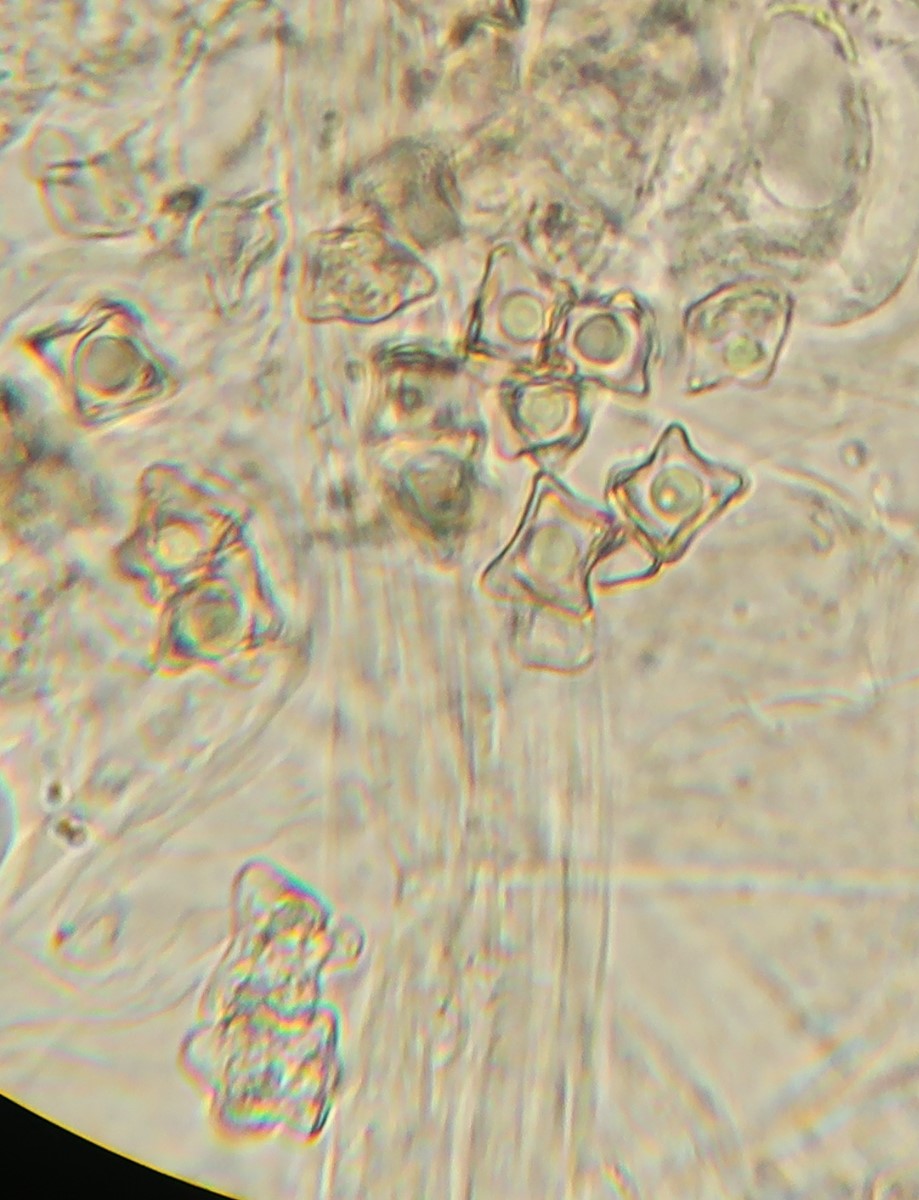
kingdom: Fungi
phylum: Basidiomycota
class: Agaricomycetes
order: Agaricales
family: Entolomataceae
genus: Entoloma
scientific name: Entoloma conferendum
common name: stjernesporet rødblad
